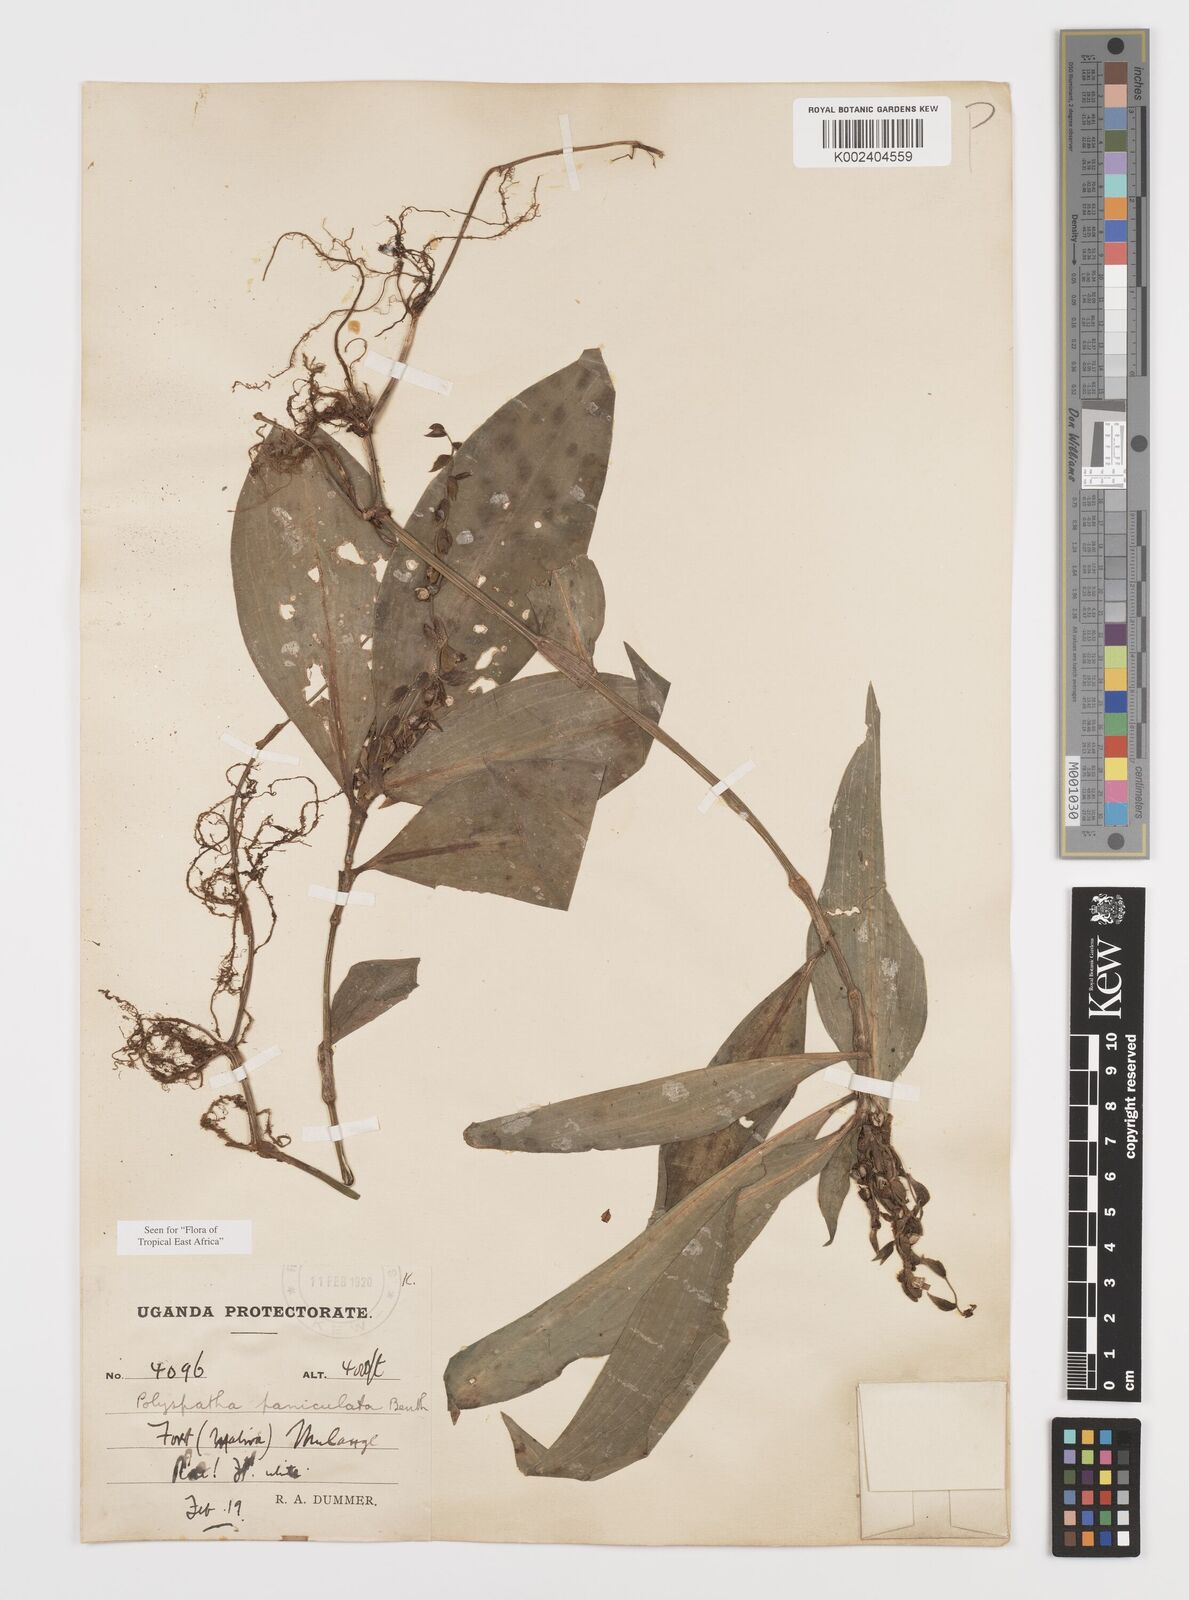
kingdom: Plantae
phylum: Tracheophyta
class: Liliopsida
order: Commelinales
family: Commelinaceae
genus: Polyspatha
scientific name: Polyspatha paniculata
